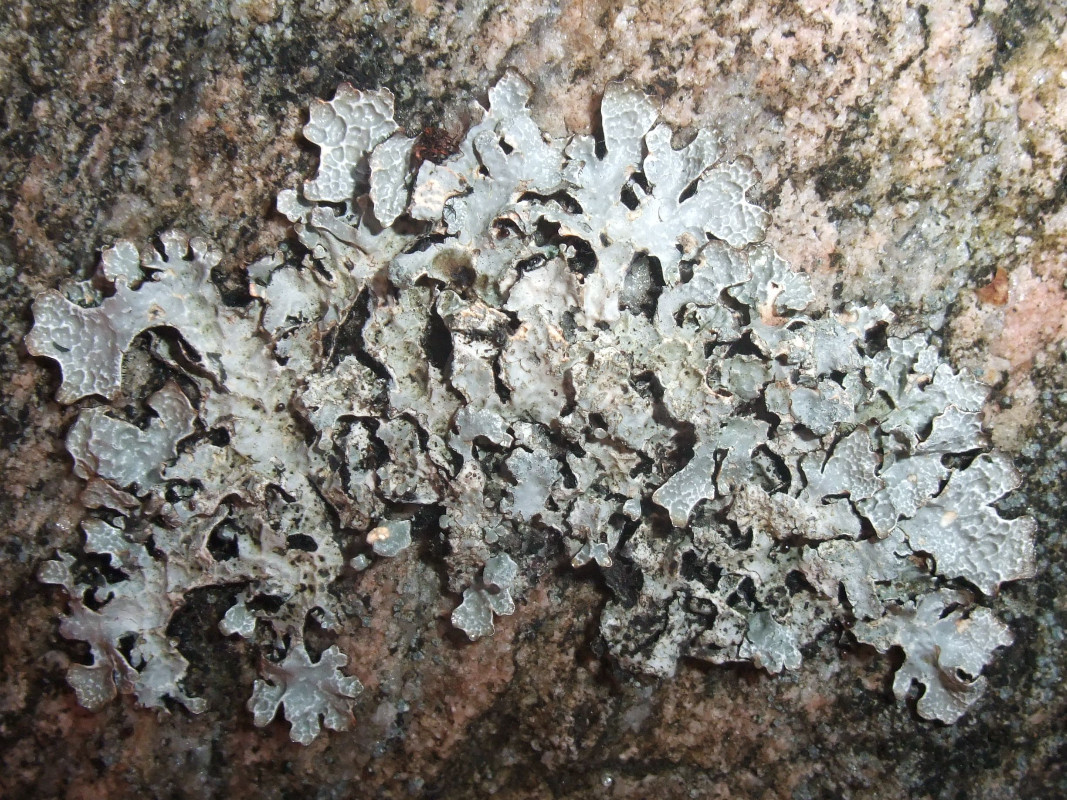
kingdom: Fungi
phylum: Ascomycota
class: Lecanoromycetes
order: Lecanorales
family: Parmeliaceae
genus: Parmelia
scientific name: Parmelia sulcata
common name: rynket skållav
